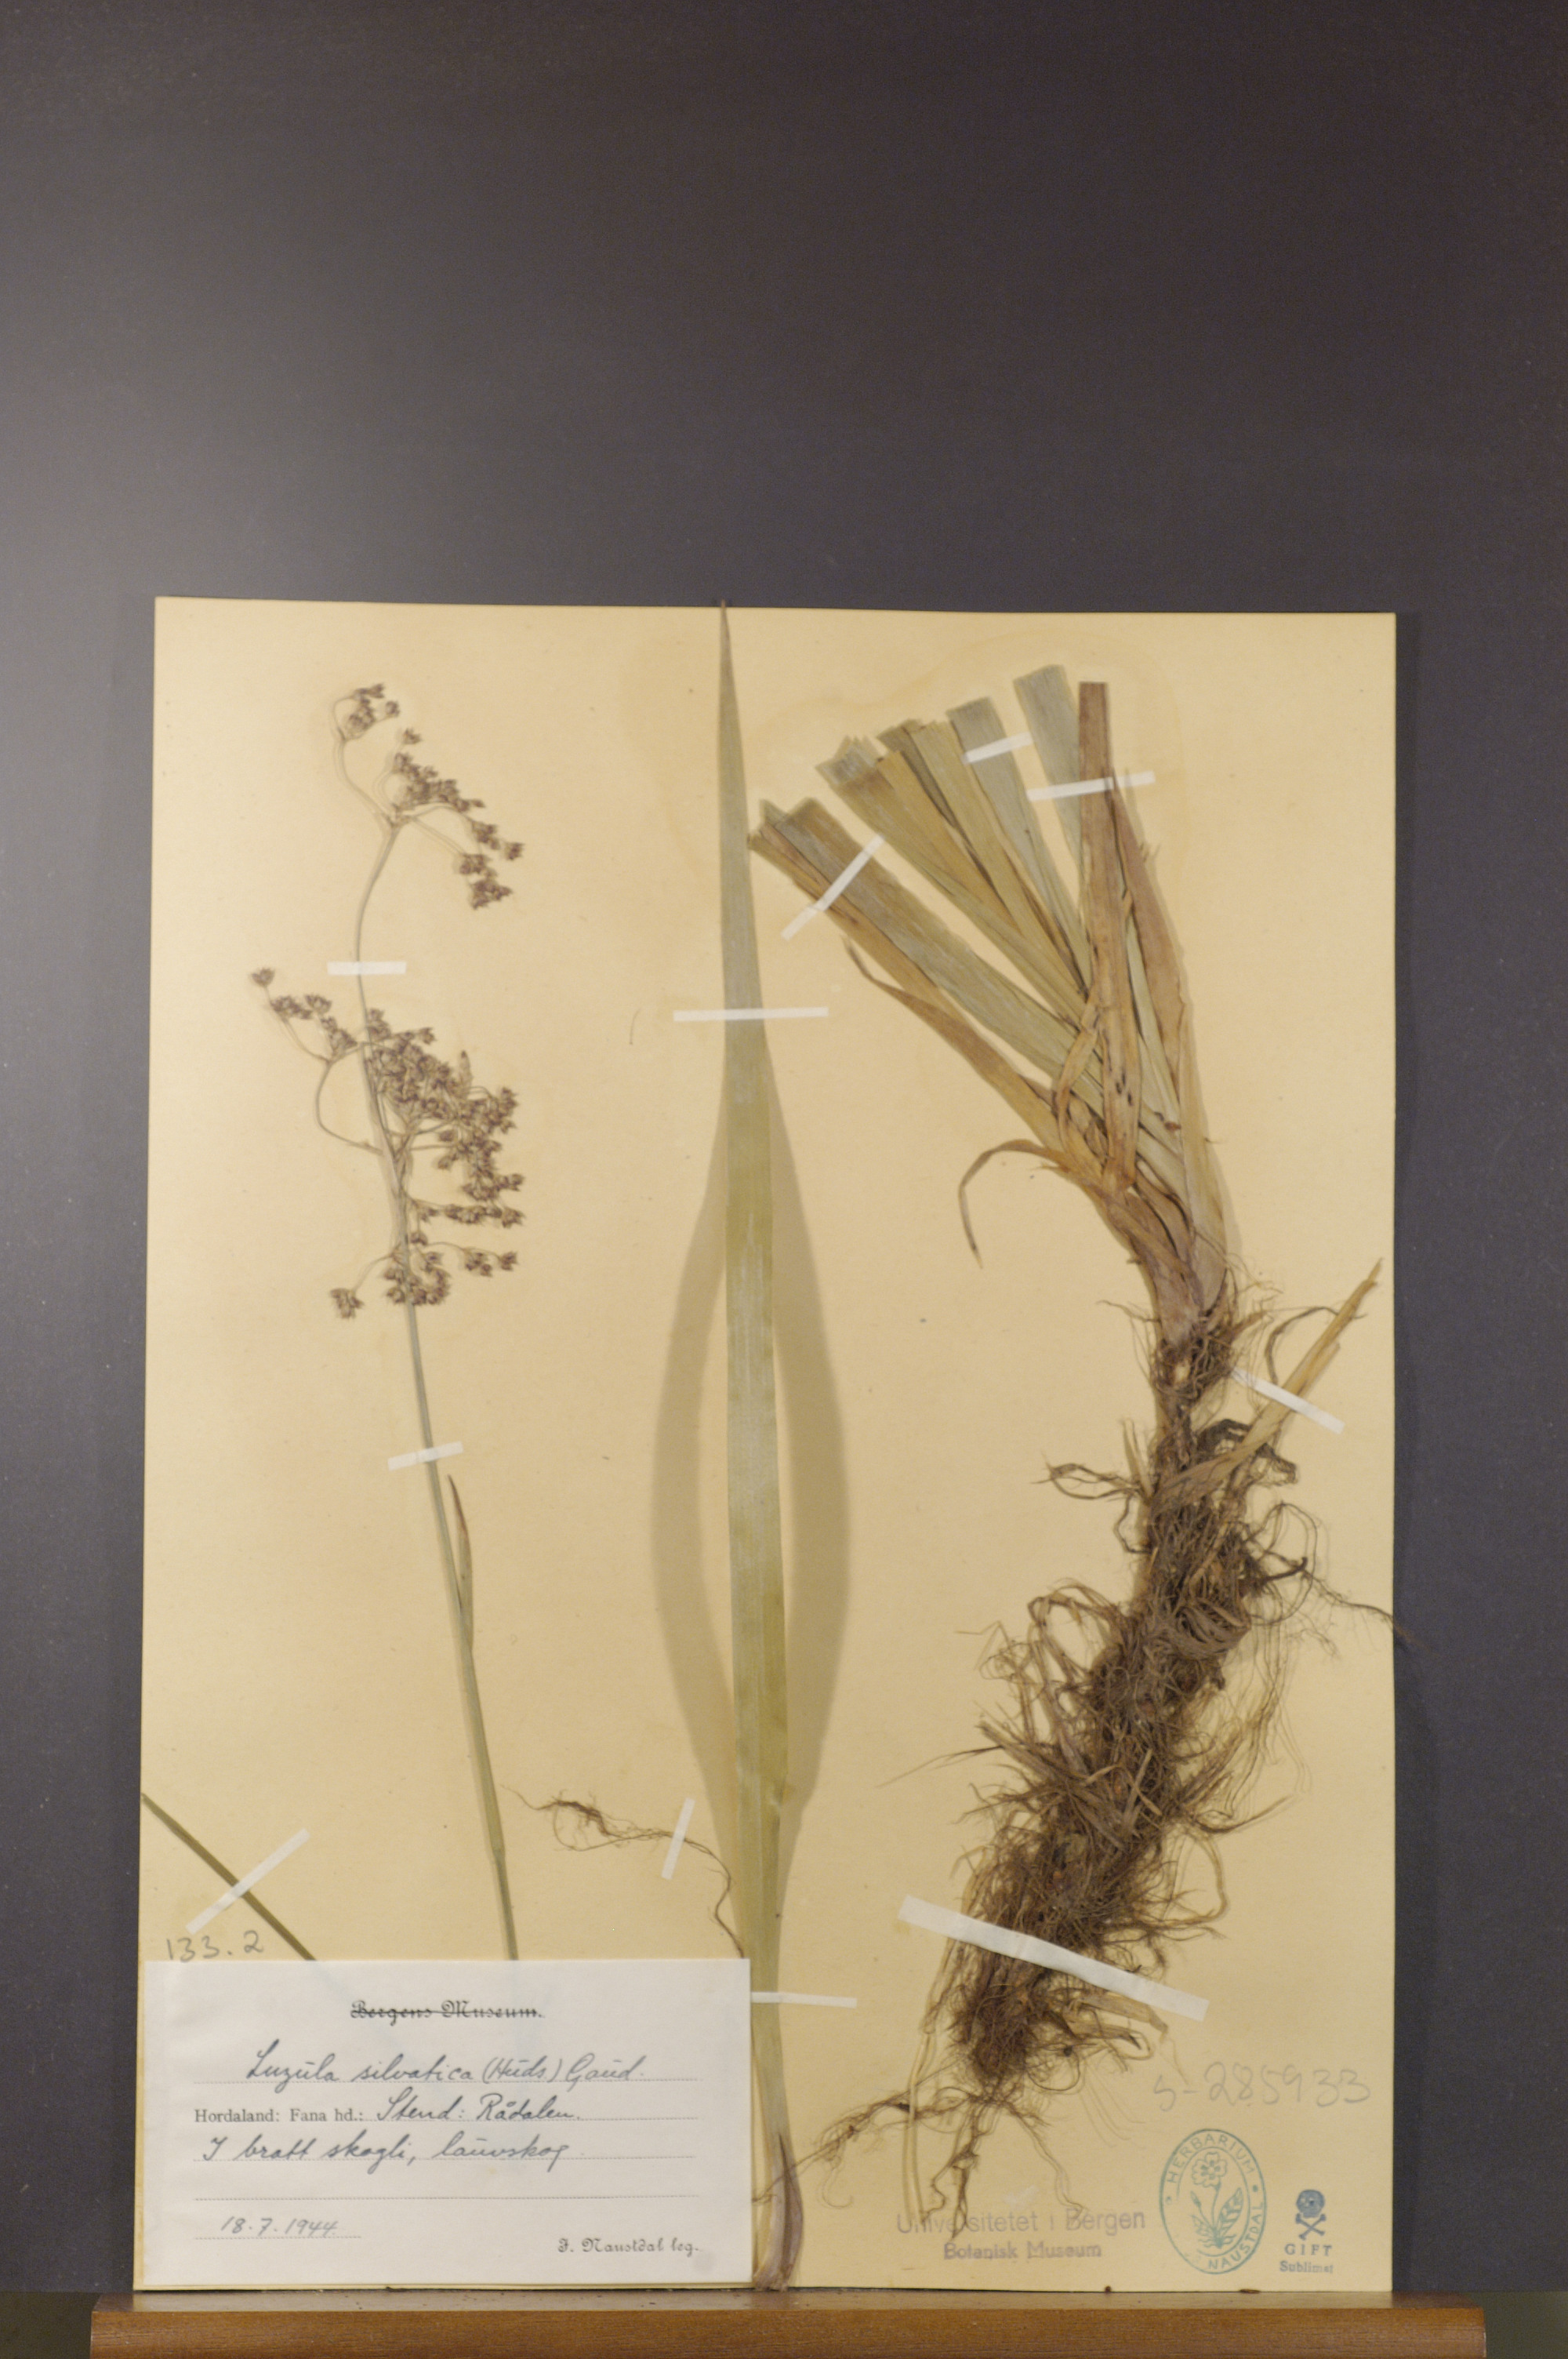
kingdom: Plantae
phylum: Tracheophyta
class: Liliopsida
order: Poales
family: Juncaceae
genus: Luzula
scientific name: Luzula sylvatica
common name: Great wood-rush
